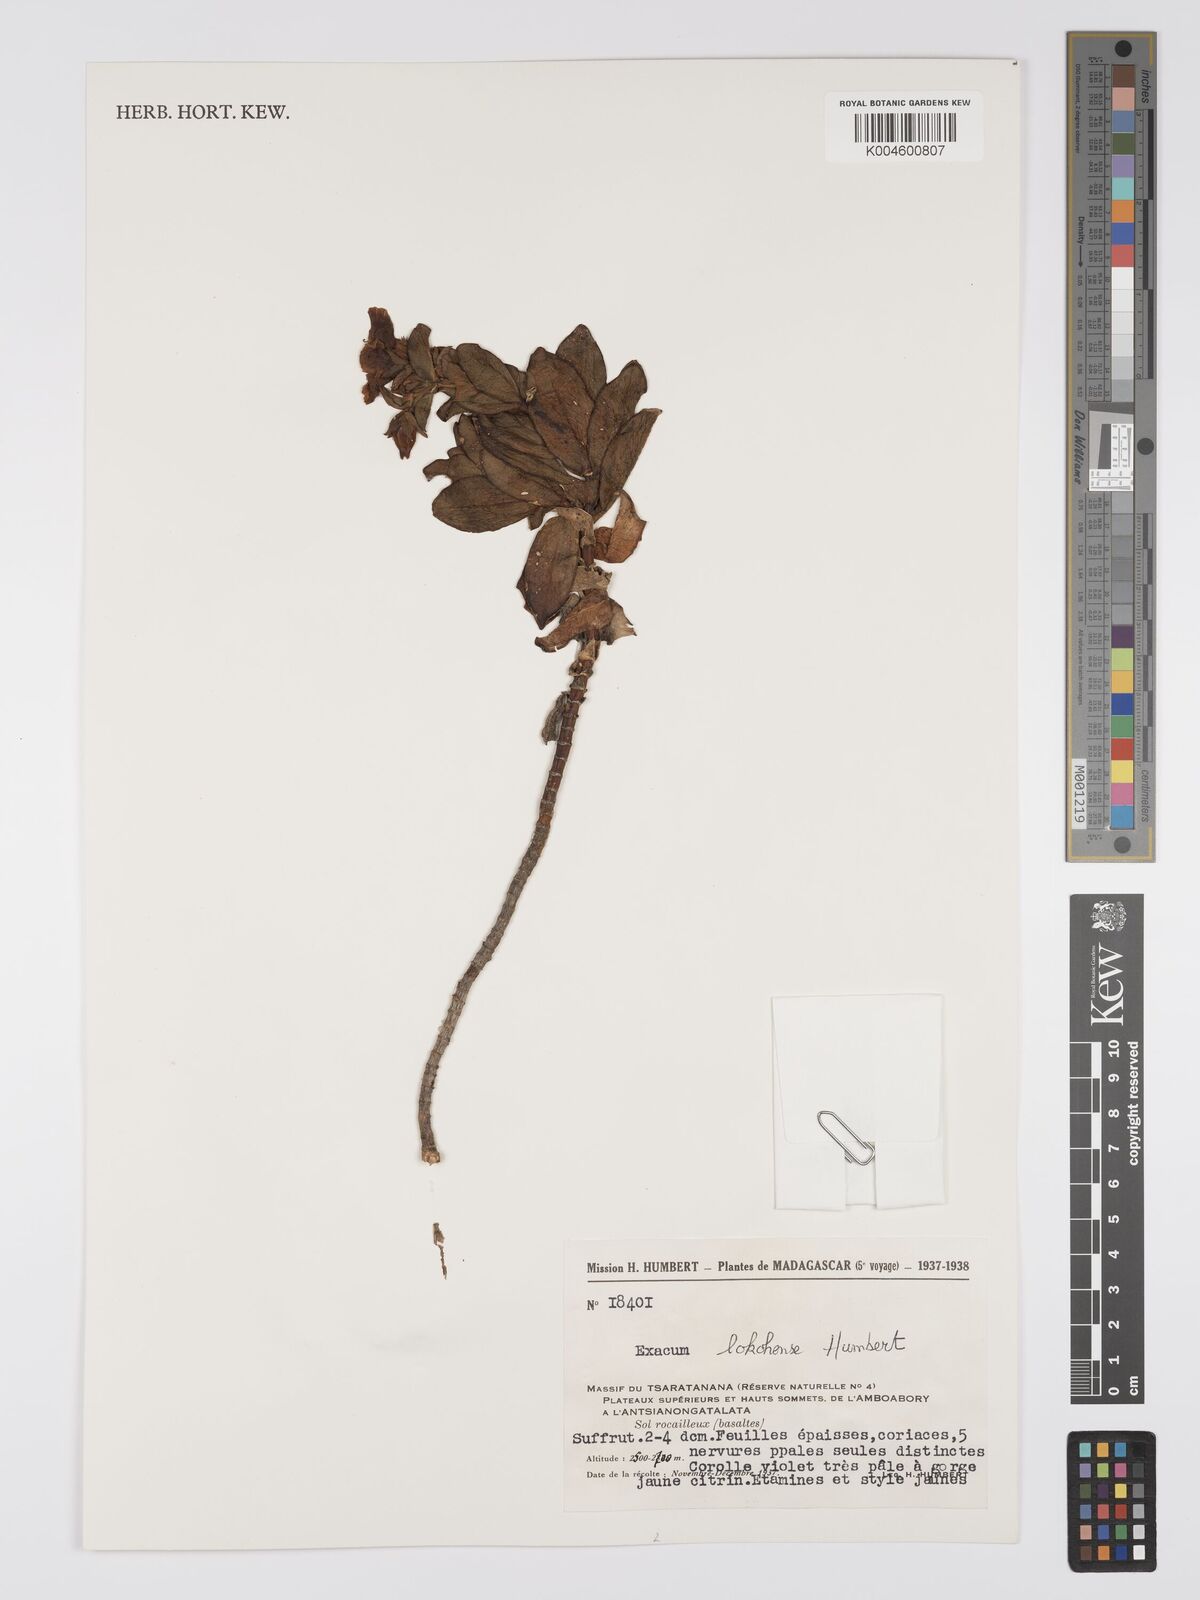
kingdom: Plantae
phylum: Tracheophyta
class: Magnoliopsida
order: Gentianales
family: Gentianaceae
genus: Exacum
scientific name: Exacum lokohense
